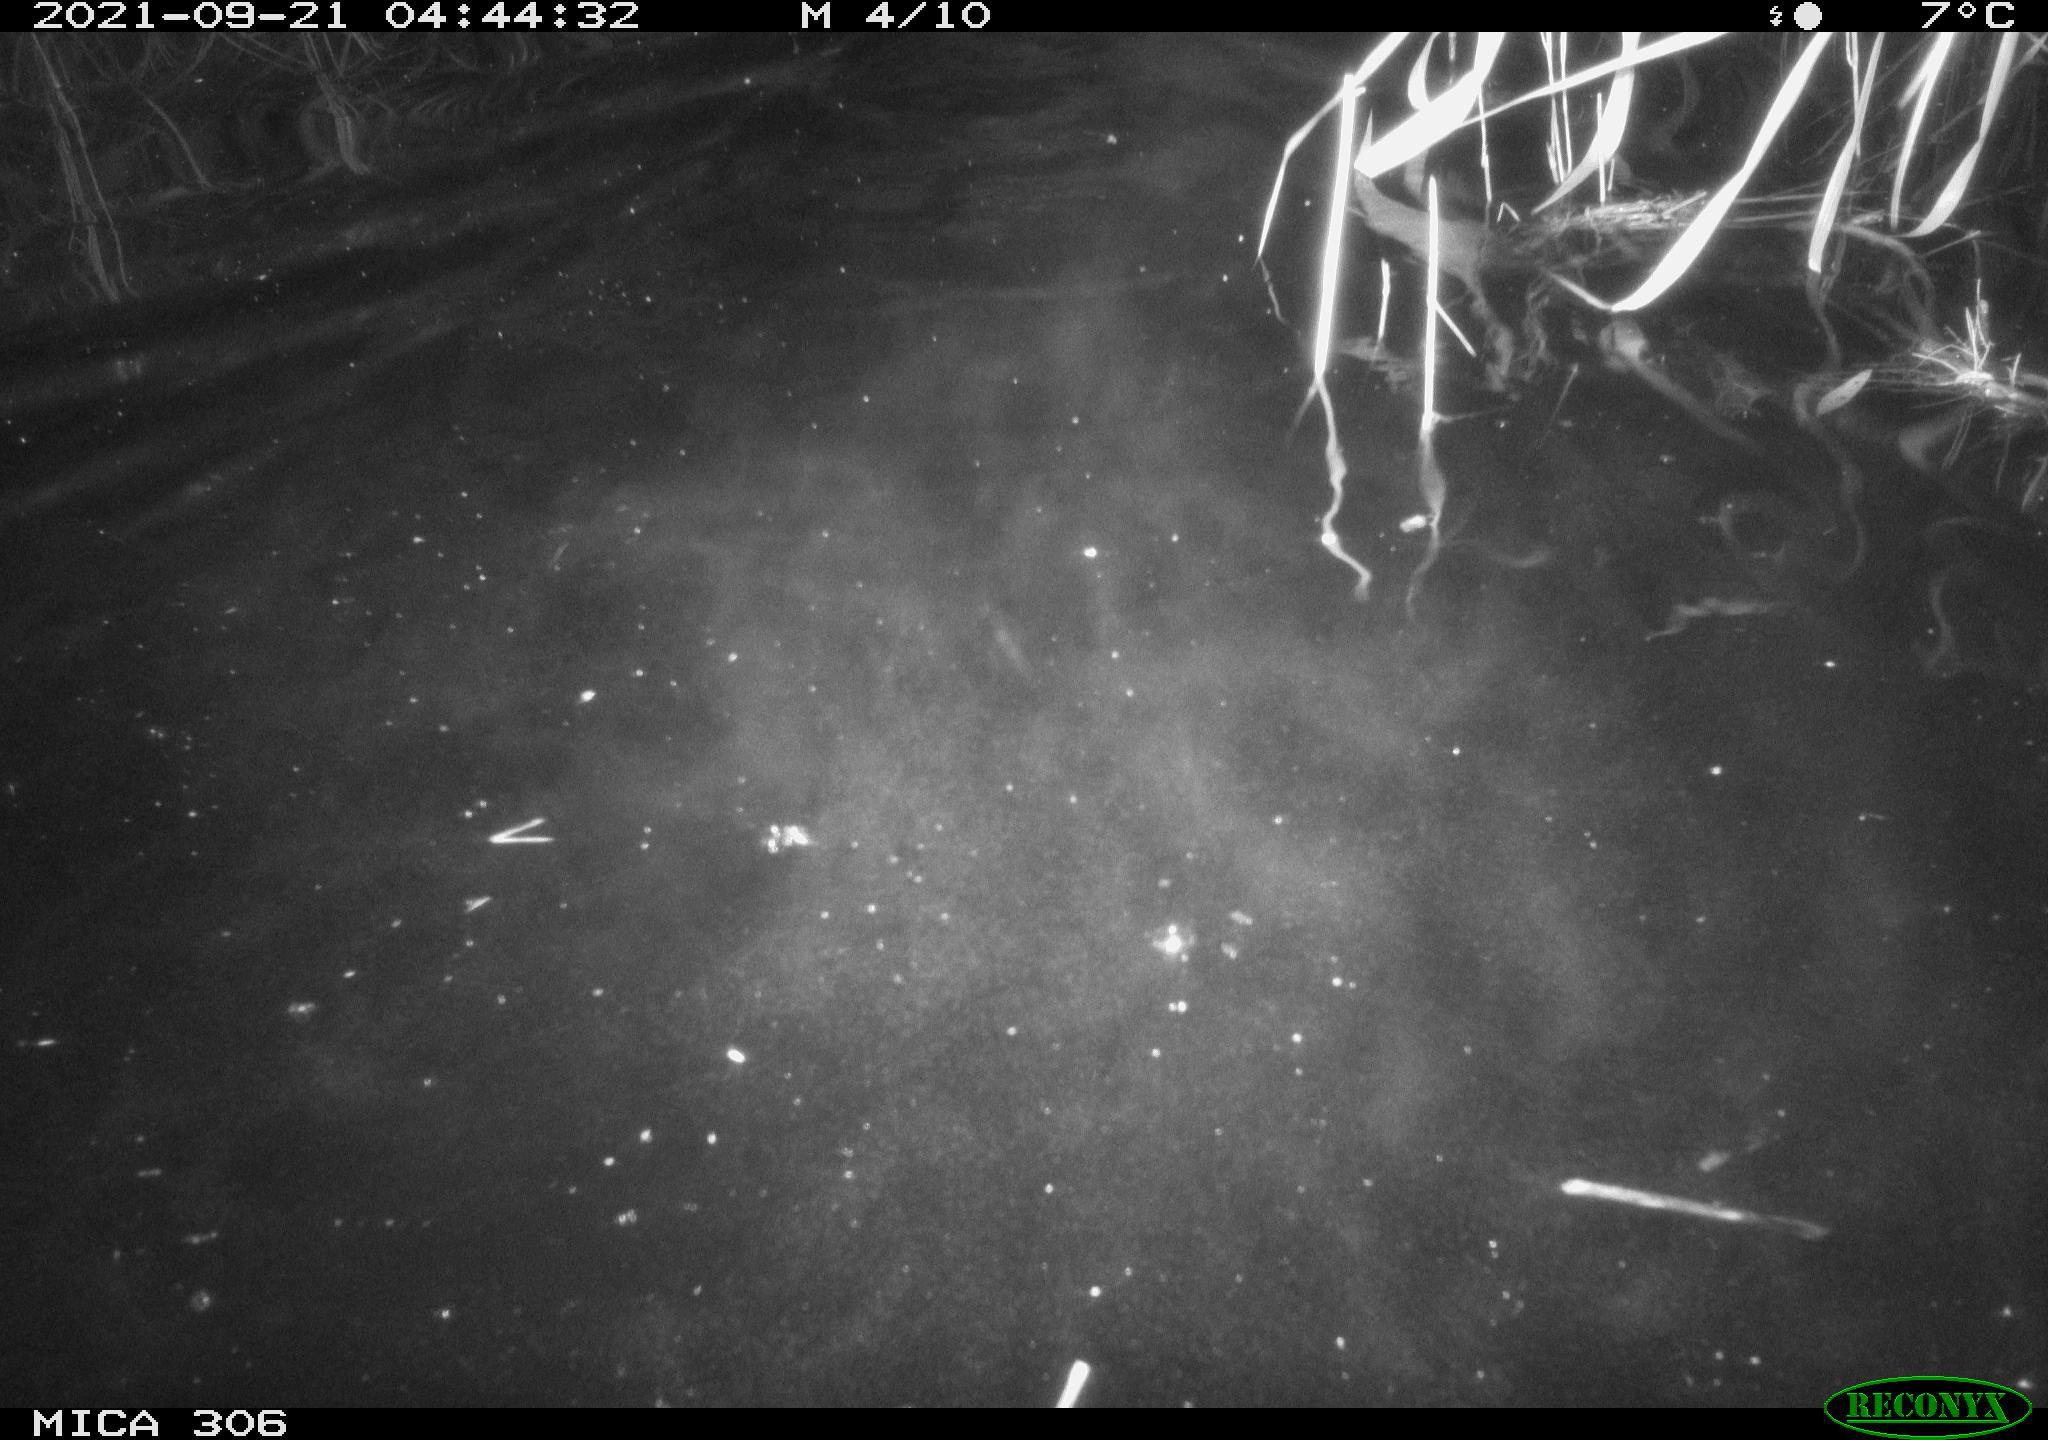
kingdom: Animalia
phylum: Chordata
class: Mammalia
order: Rodentia
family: Cricetidae
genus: Ondatra
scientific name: Ondatra zibethicus
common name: Muskrat
